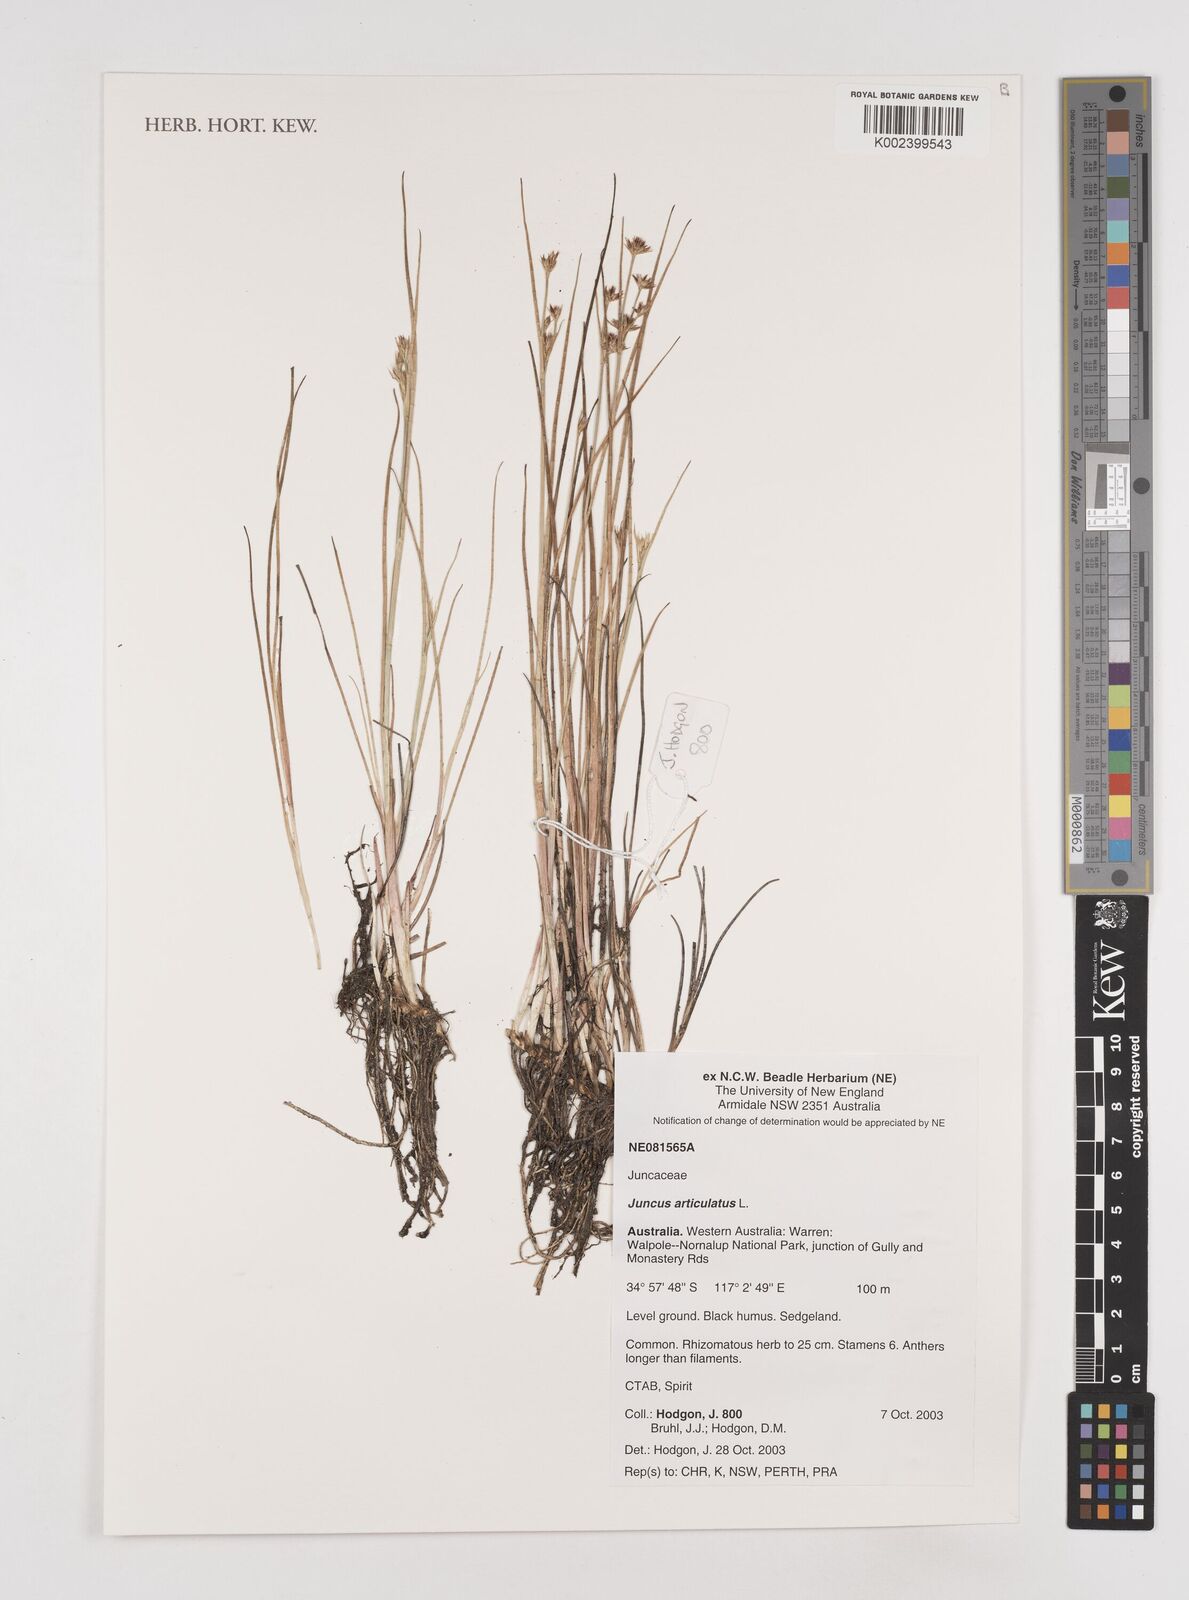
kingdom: Plantae
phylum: Tracheophyta
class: Liliopsida
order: Poales
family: Juncaceae
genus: Juncus
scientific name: Juncus articulatus
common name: Jointed rush
